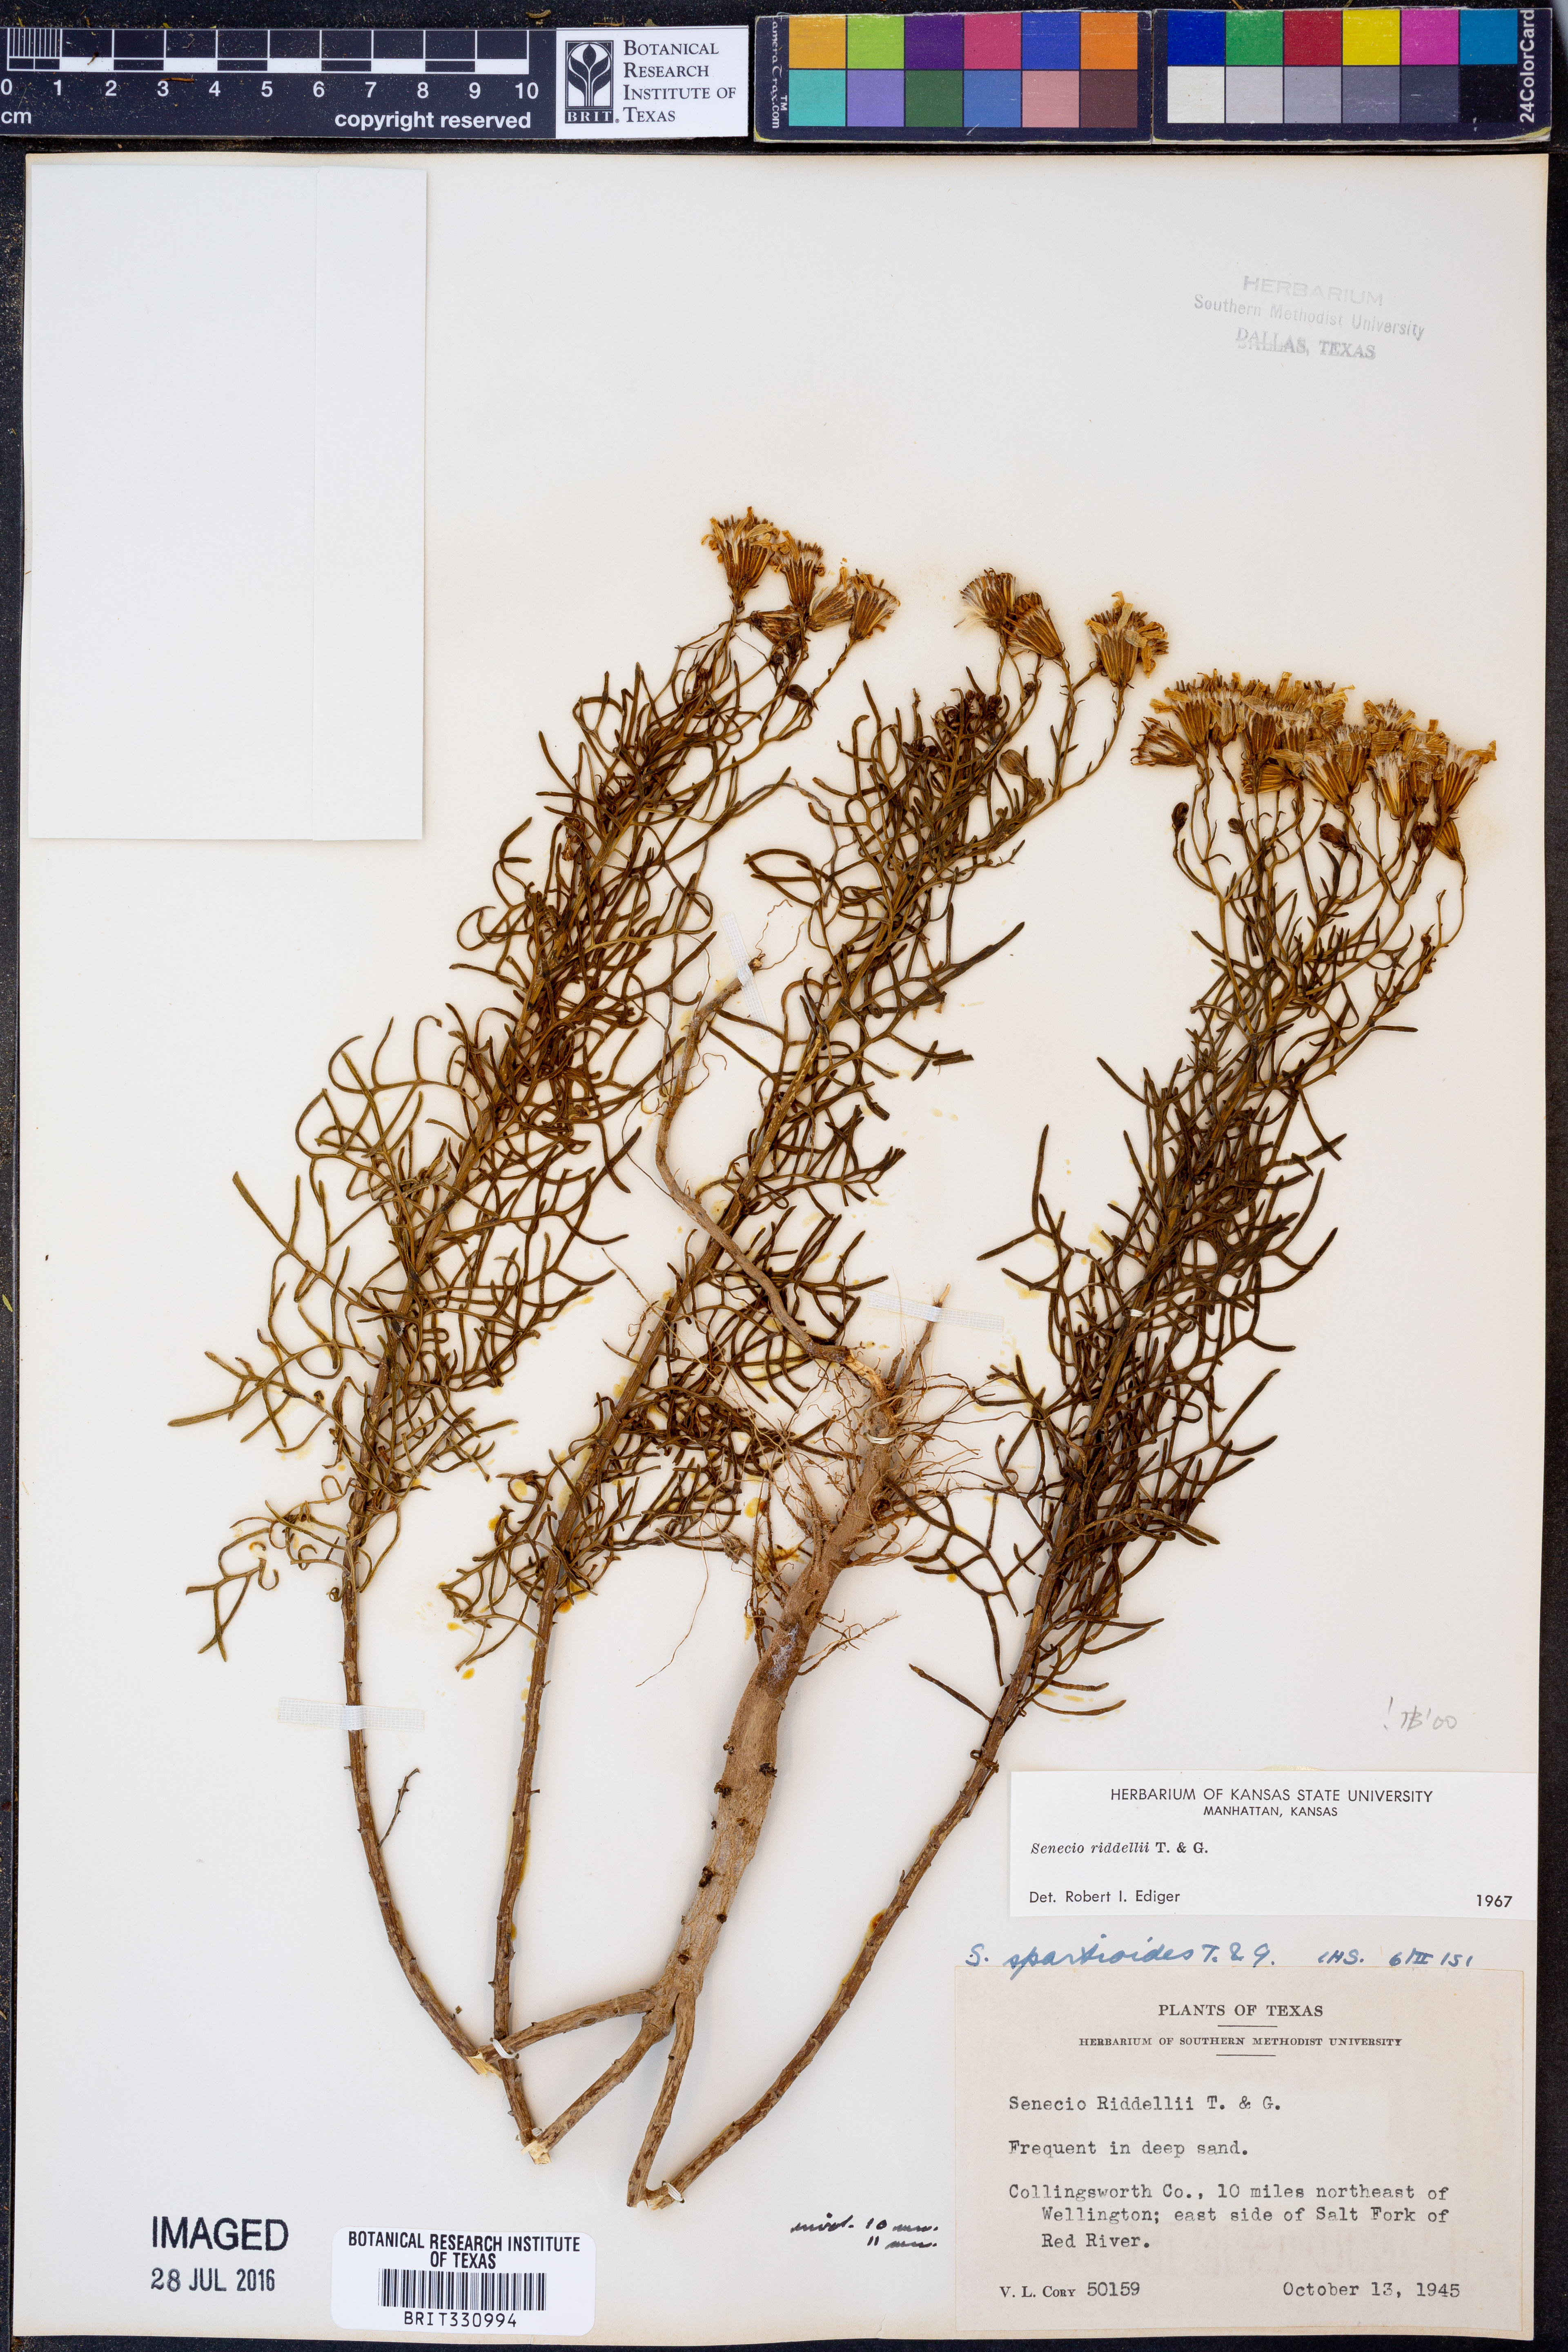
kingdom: Plantae
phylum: Tracheophyta
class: Magnoliopsida
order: Asterales
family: Asteraceae
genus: Senecio
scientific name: Senecio riddellii
